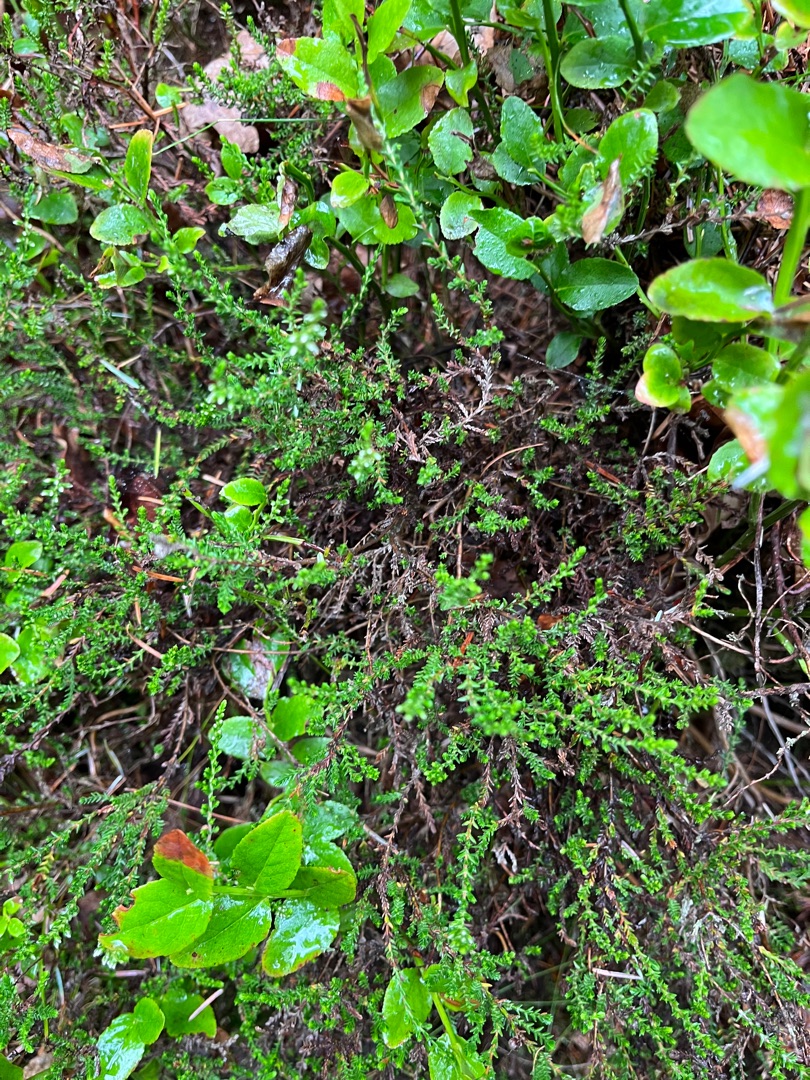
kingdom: Plantae
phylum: Tracheophyta
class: Magnoliopsida
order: Ericales
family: Ericaceae
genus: Calluna
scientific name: Calluna vulgaris
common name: Hedelyng
